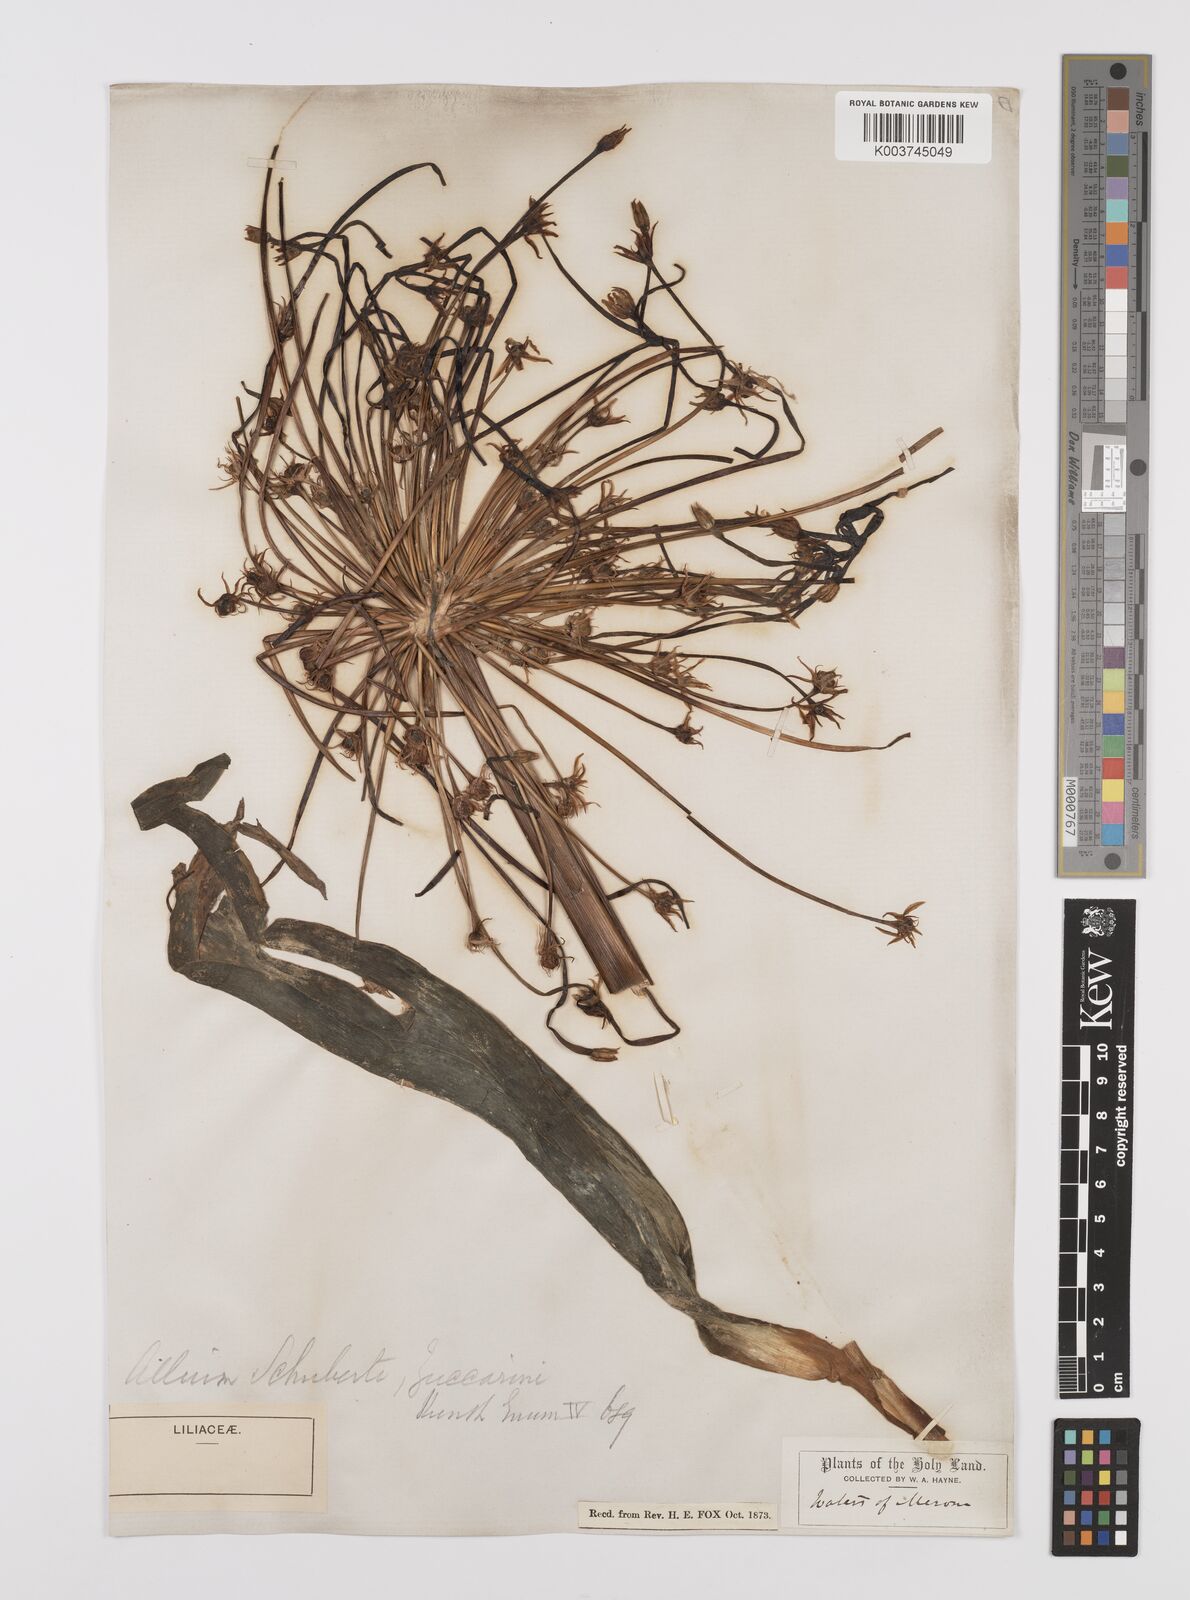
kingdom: Plantae
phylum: Tracheophyta
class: Liliopsida
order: Asparagales
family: Amaryllidaceae
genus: Allium
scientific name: Allium schubertii
